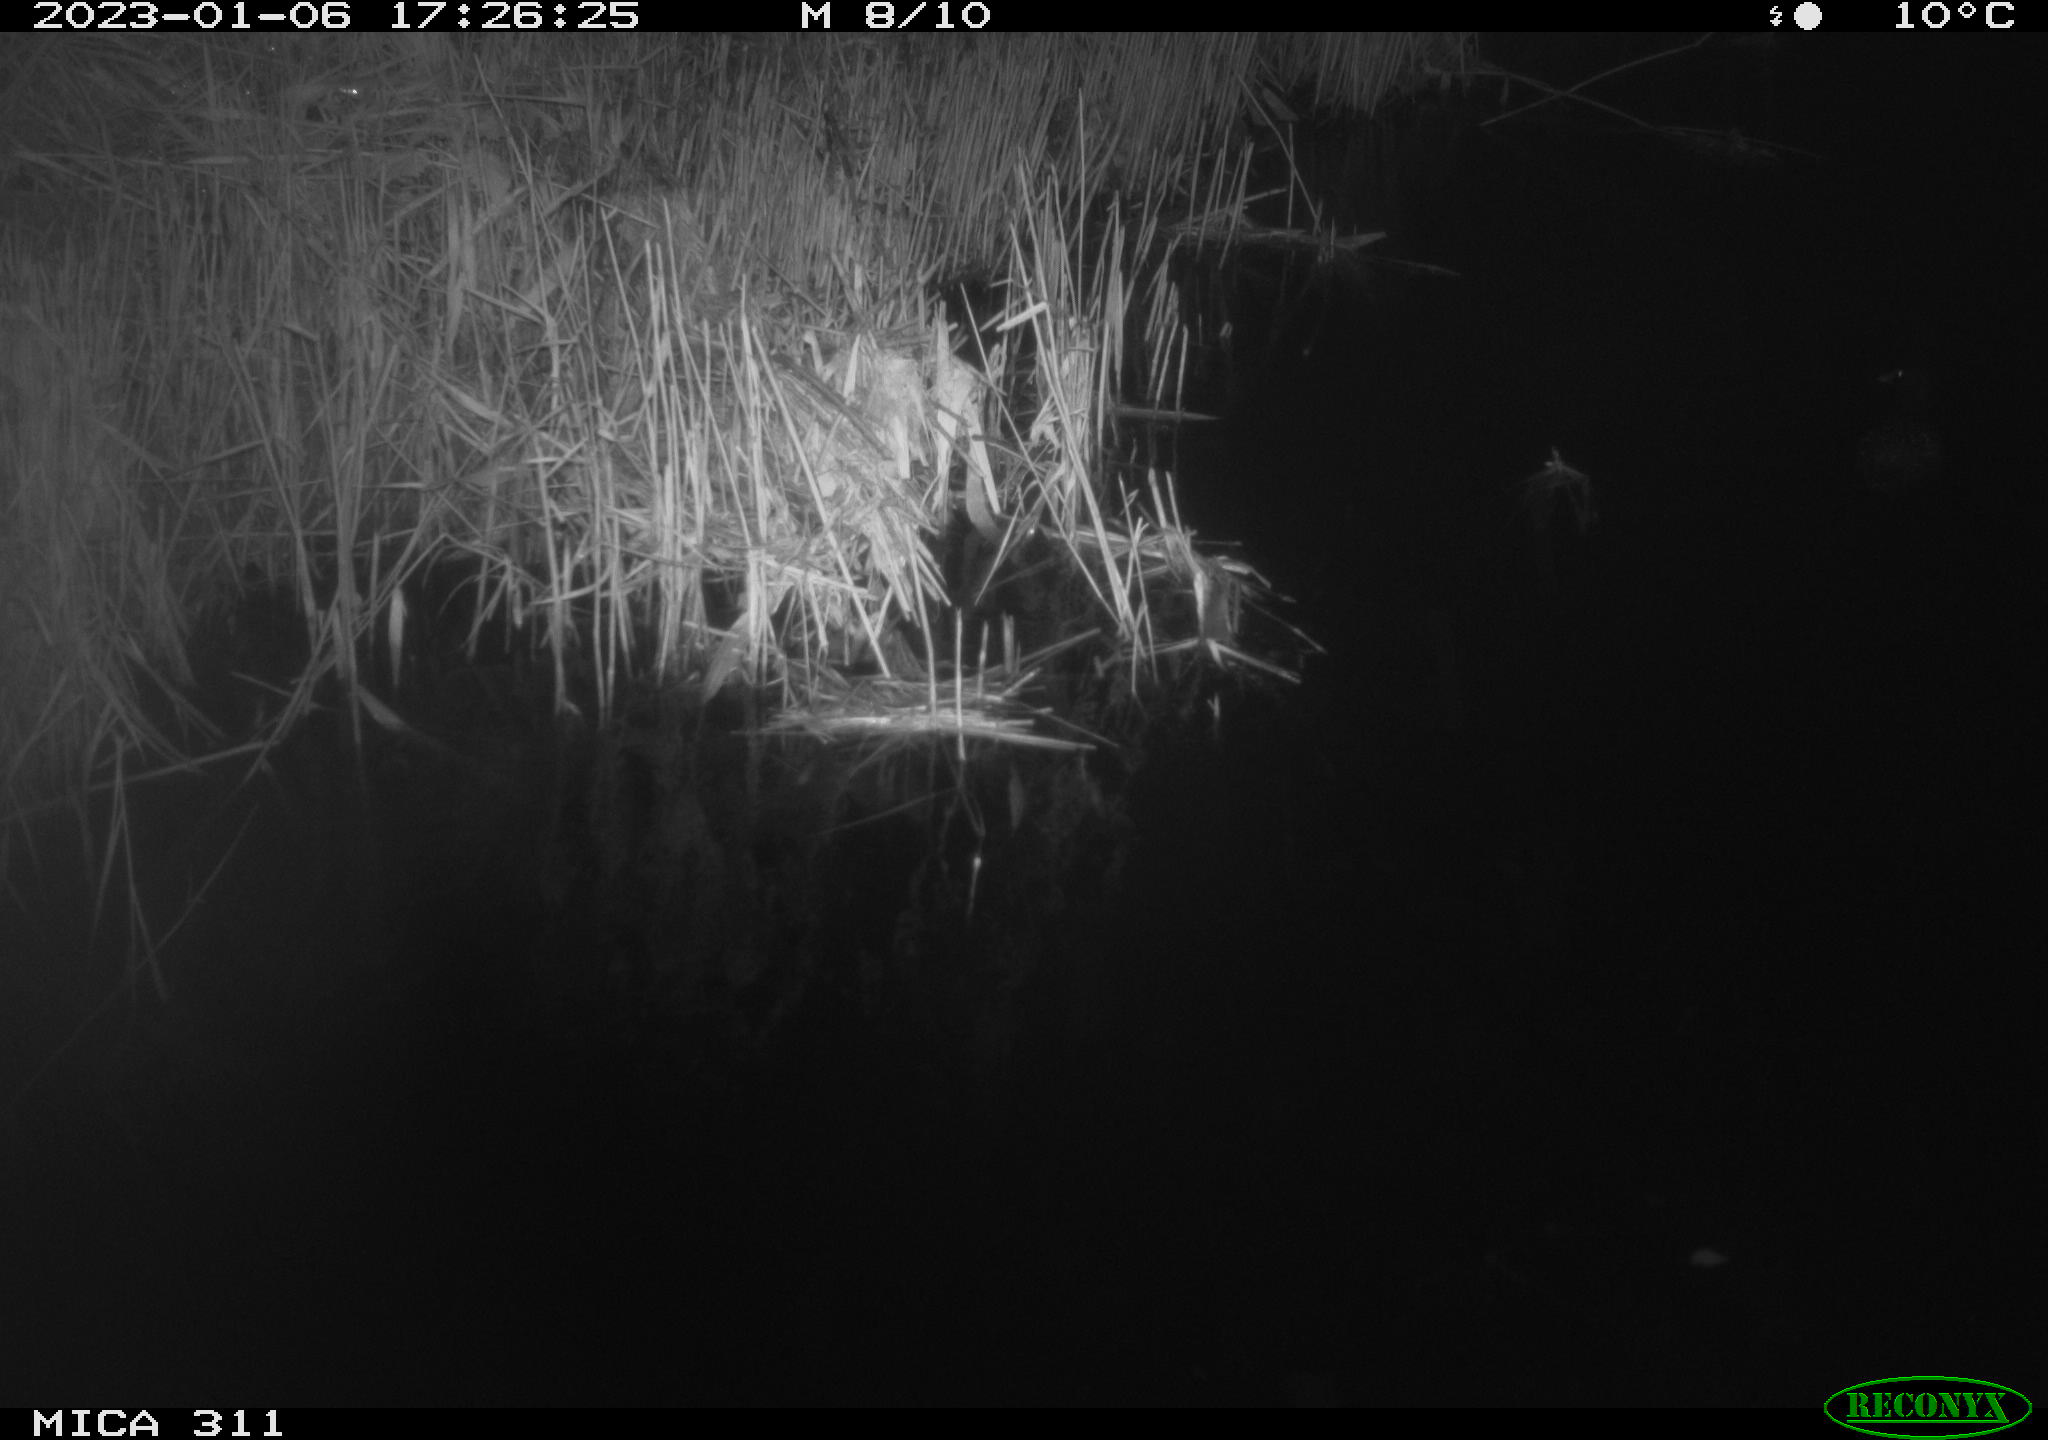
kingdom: Animalia
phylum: Chordata
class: Aves
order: Anseriformes
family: Anatidae
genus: Anas
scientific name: Anas
